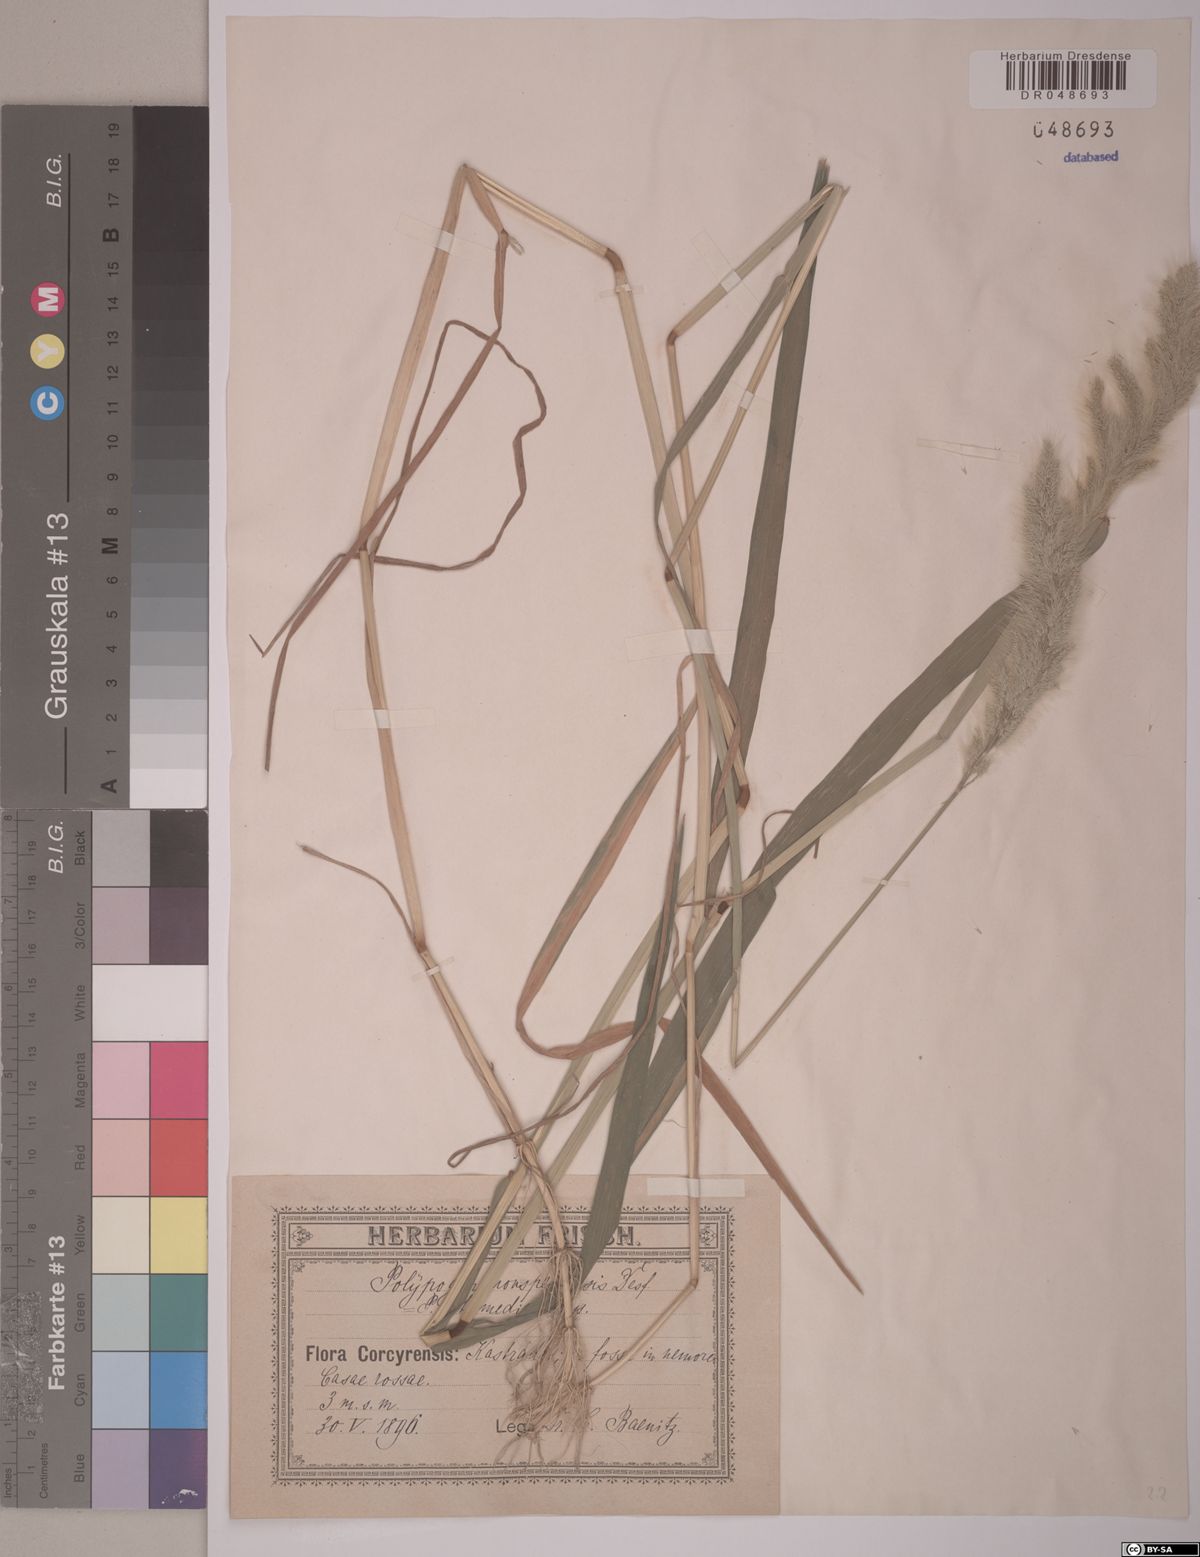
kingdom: Plantae
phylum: Tracheophyta
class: Liliopsida
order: Poales
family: Poaceae
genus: Polypogon
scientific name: Polypogon monspeliensis
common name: Annual rabbitsfoot grass
